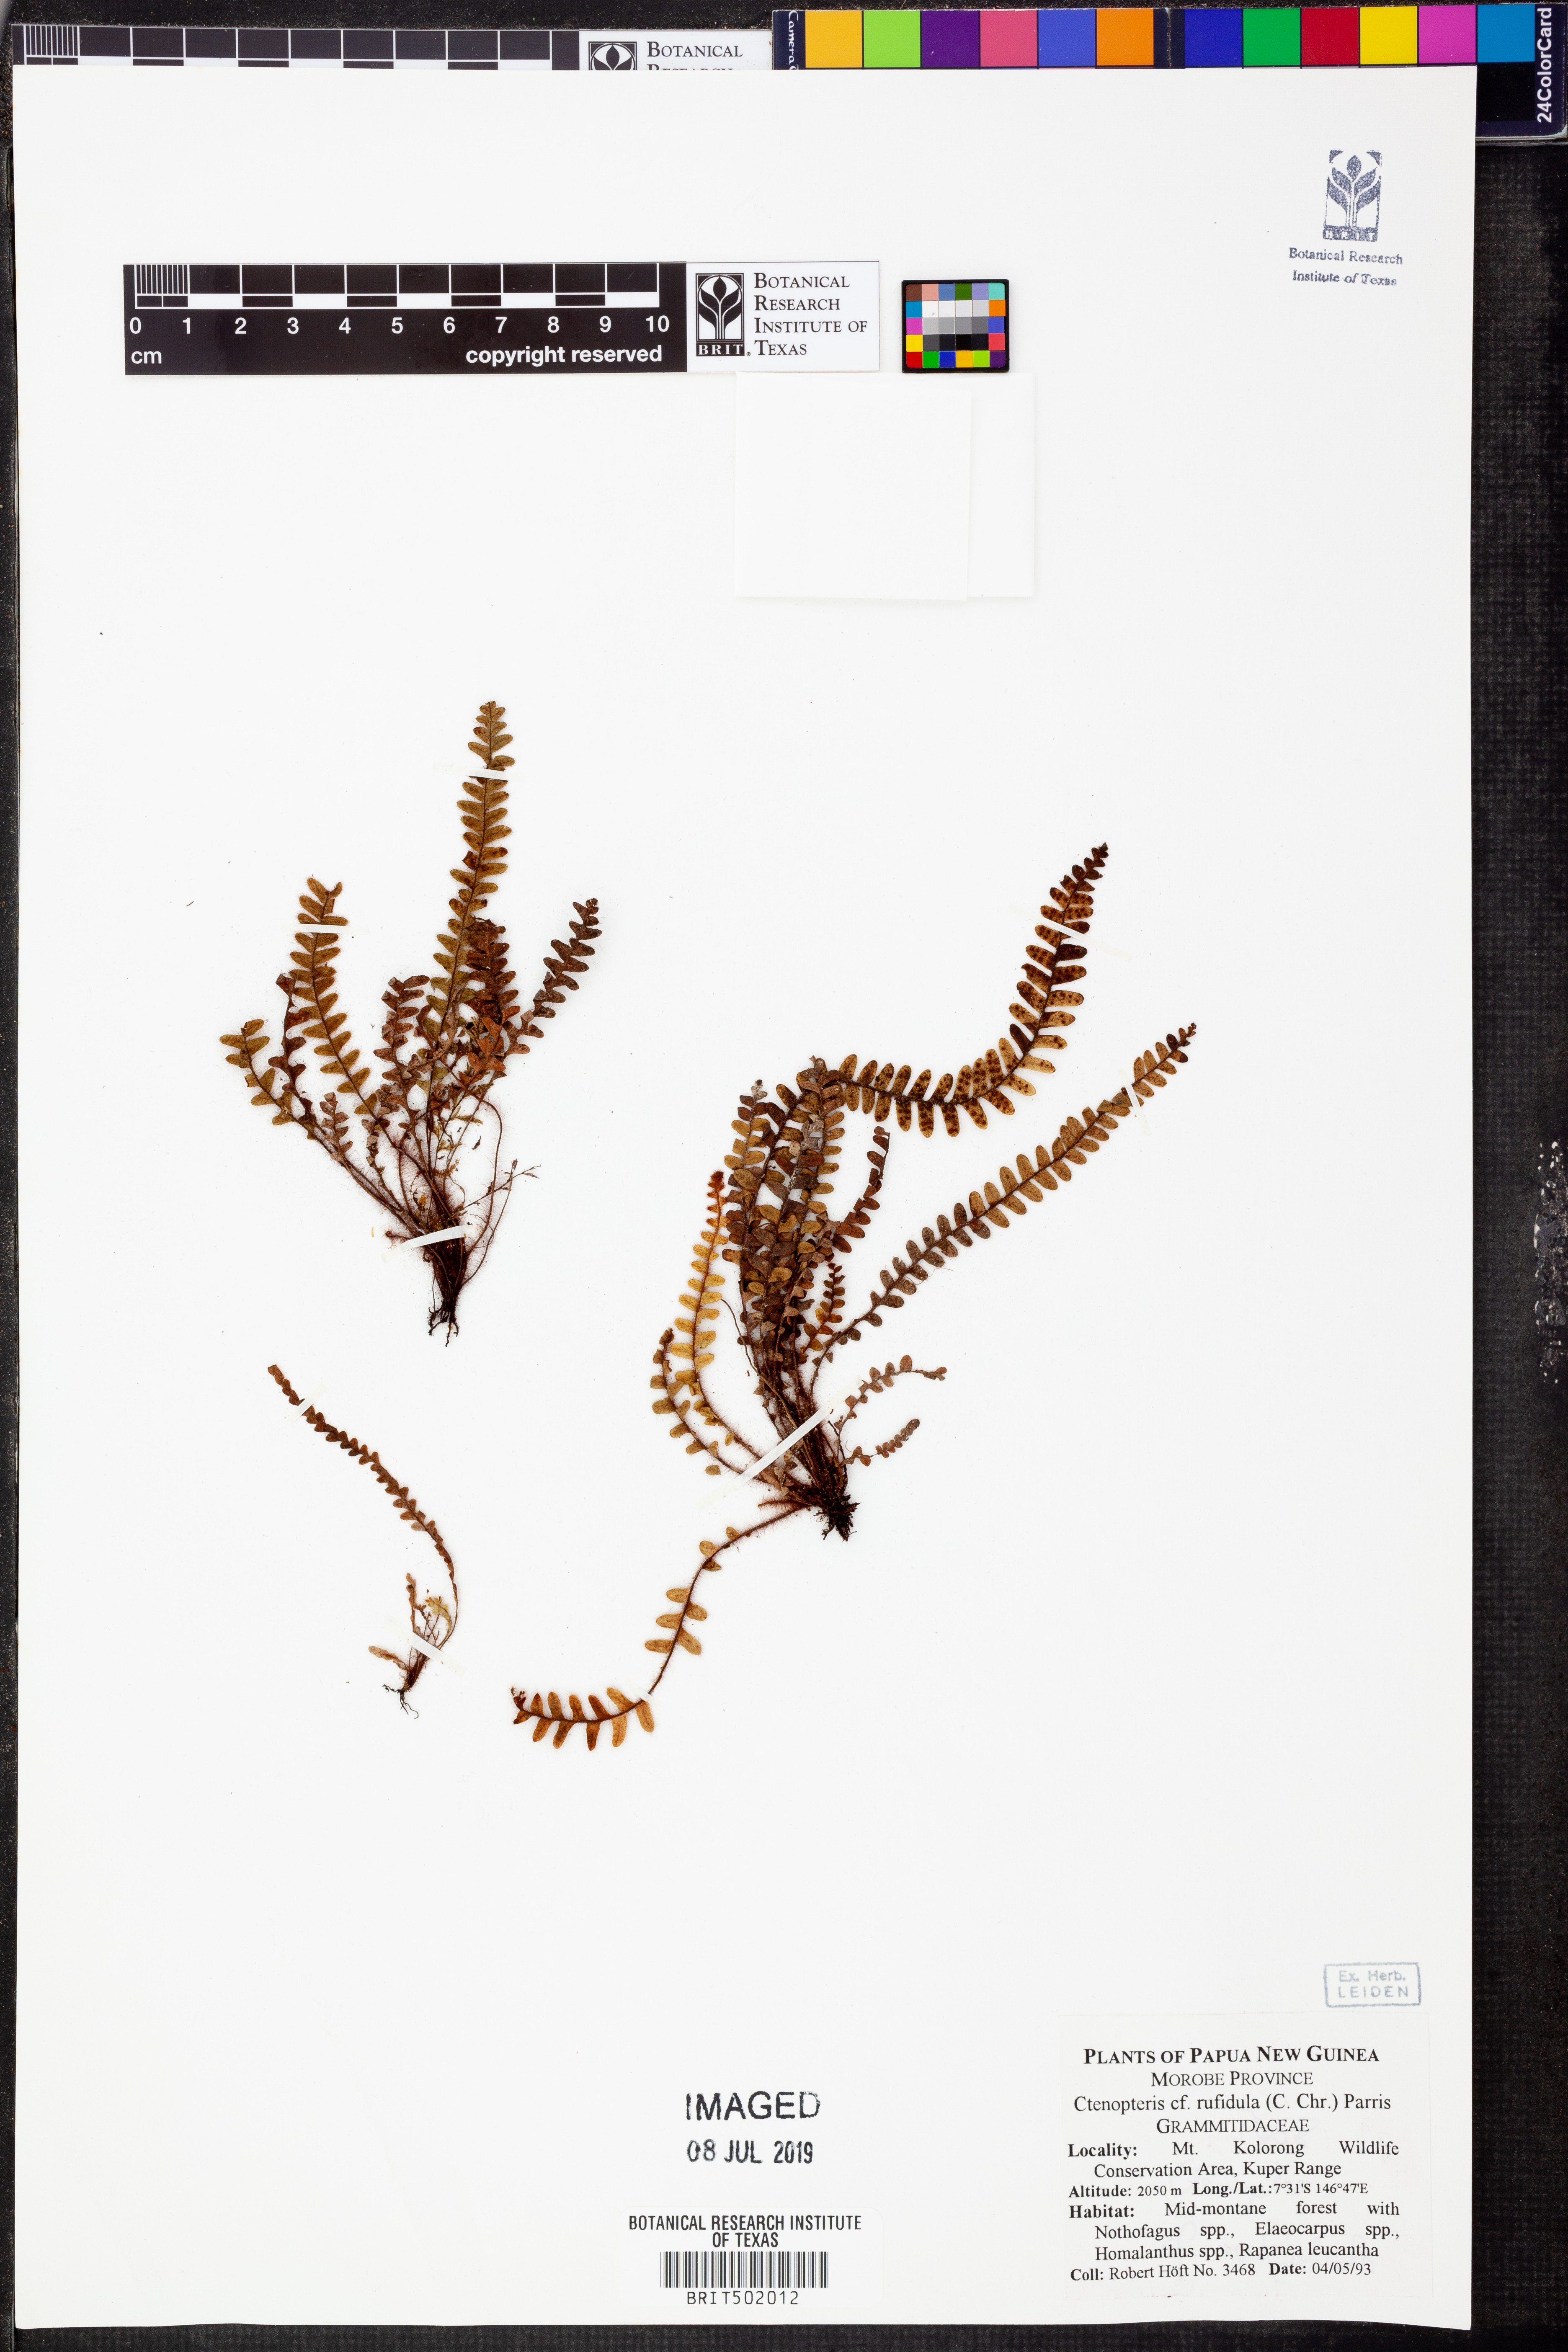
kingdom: Plantae
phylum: Tracheophyta
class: Polypodiopsida
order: Polypodiales
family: Polypodiaceae
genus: Dasygrammitis
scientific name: Dasygrammitis mollicoma
